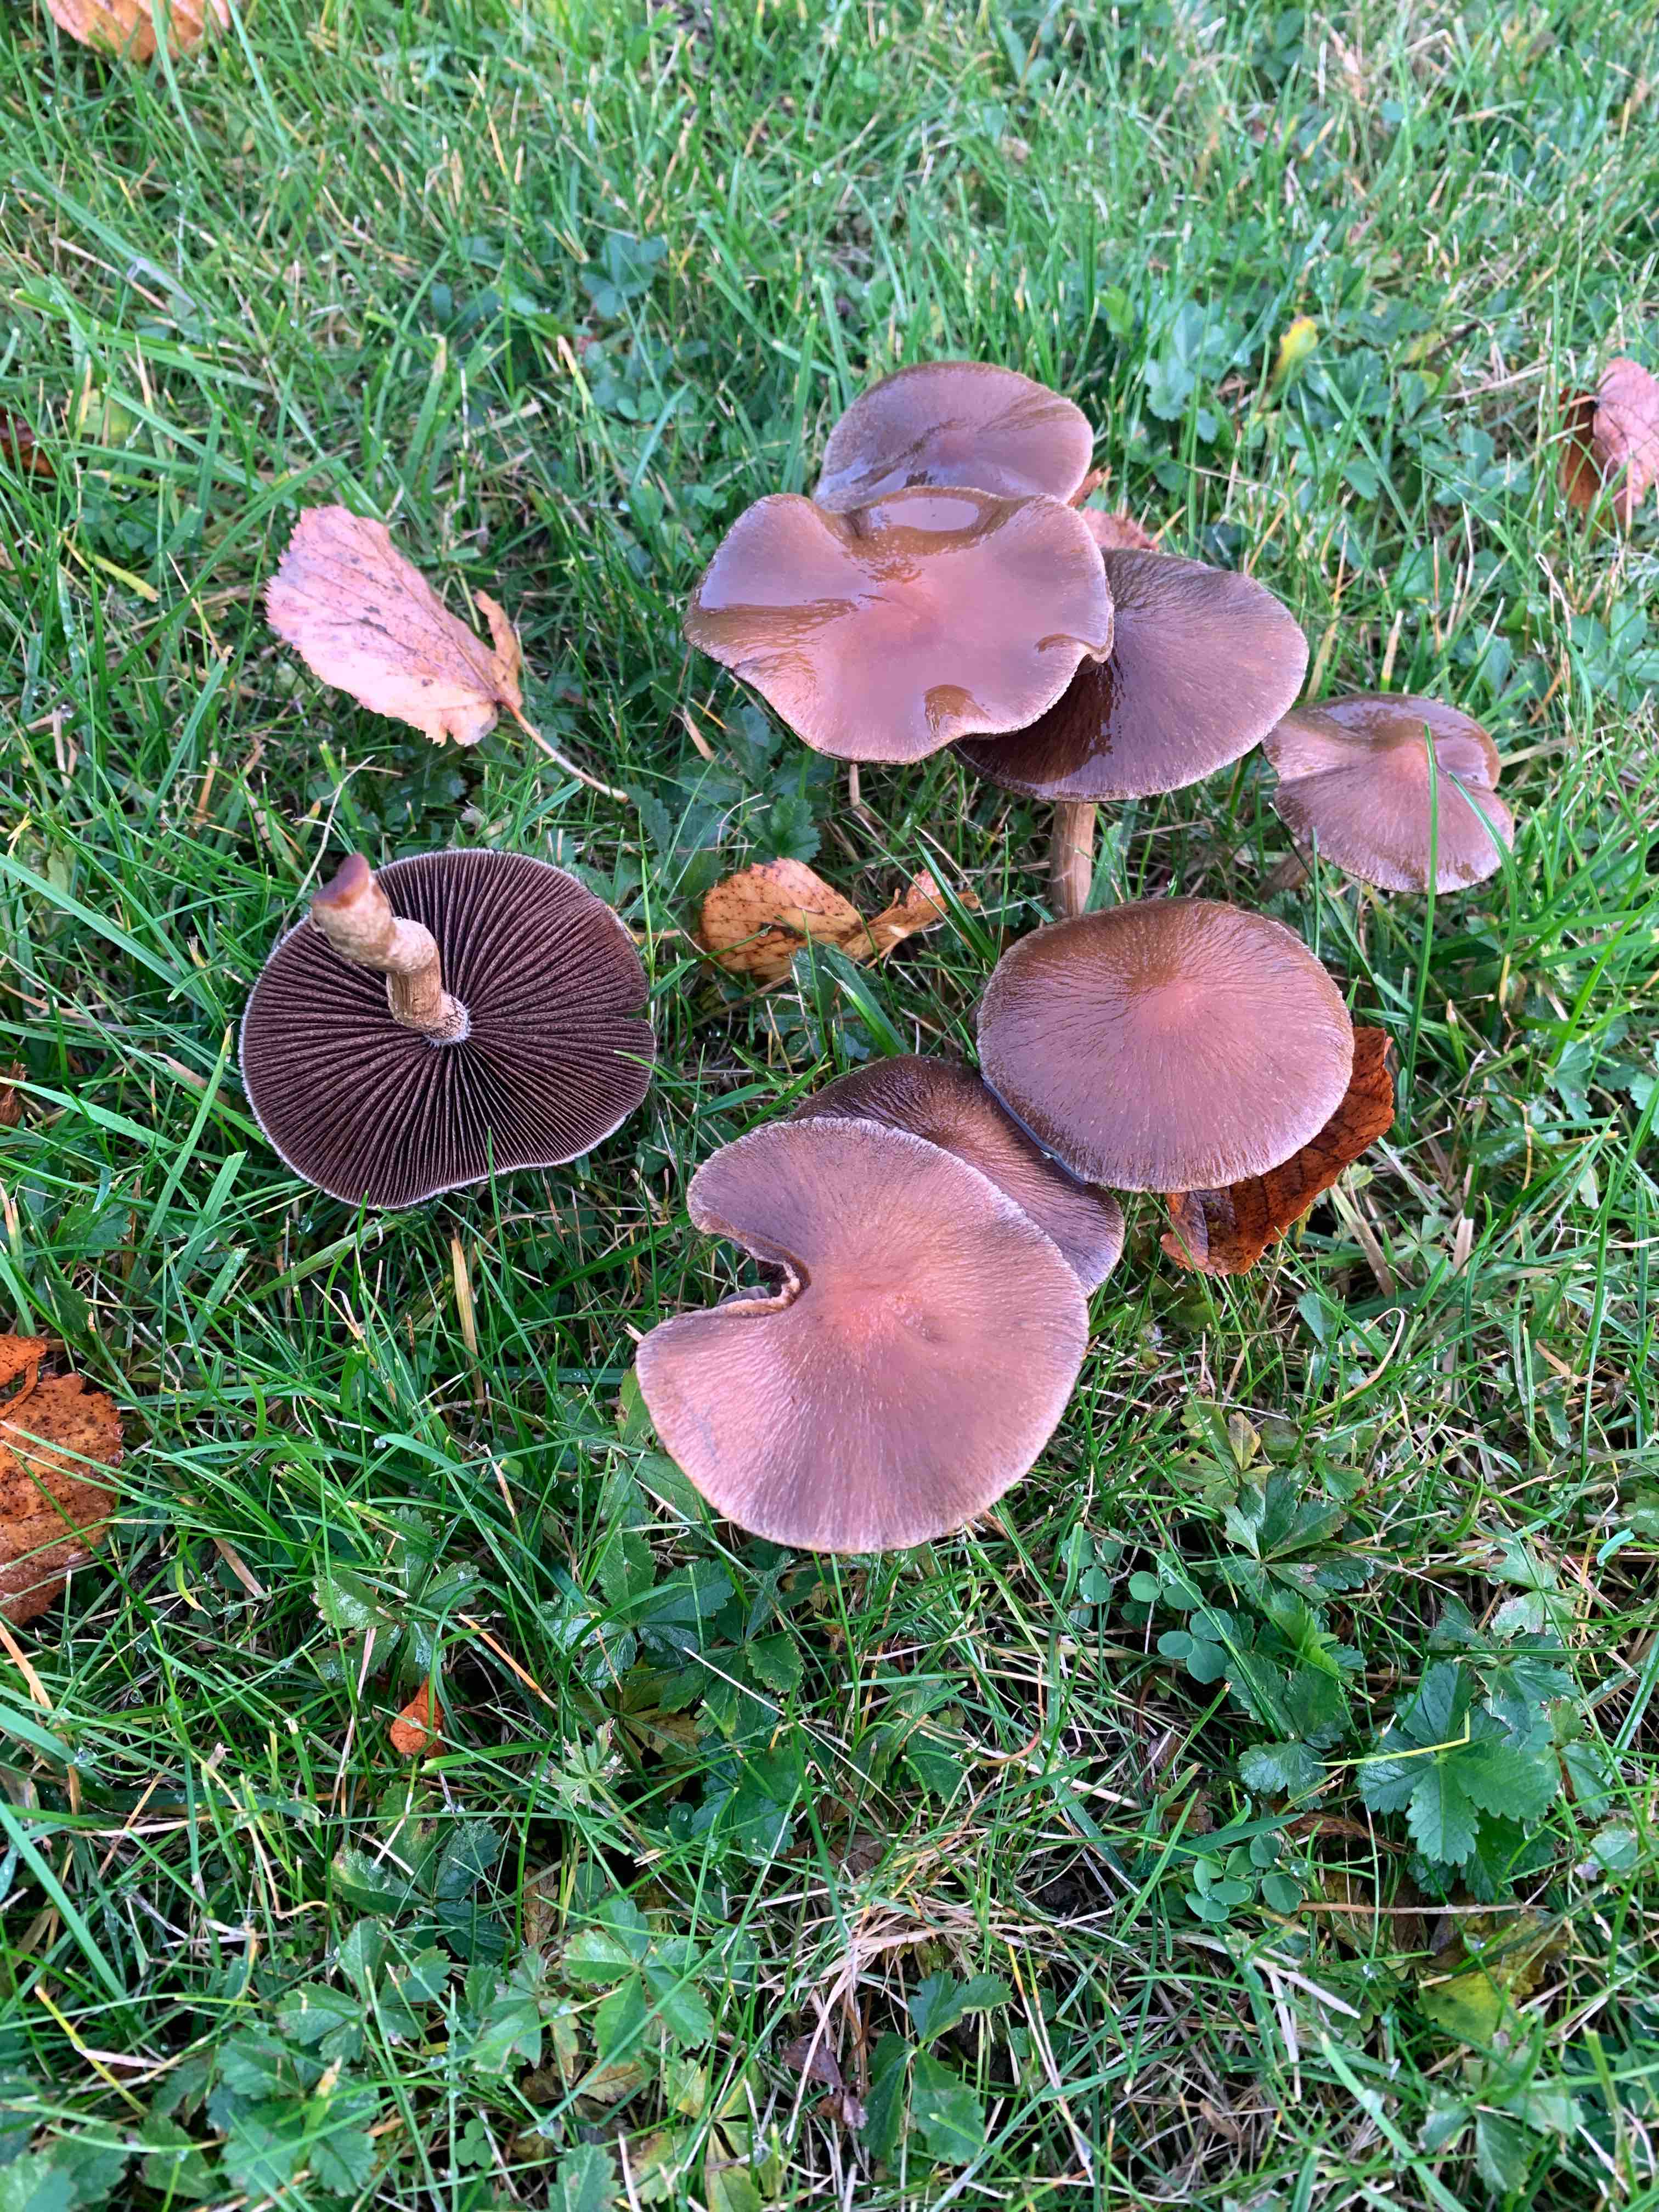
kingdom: Fungi
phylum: Basidiomycota
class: Agaricomycetes
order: Agaricales
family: Psathyrellaceae
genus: Lacrymaria
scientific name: Lacrymaria lacrymabunda
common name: grædende mørkhat
